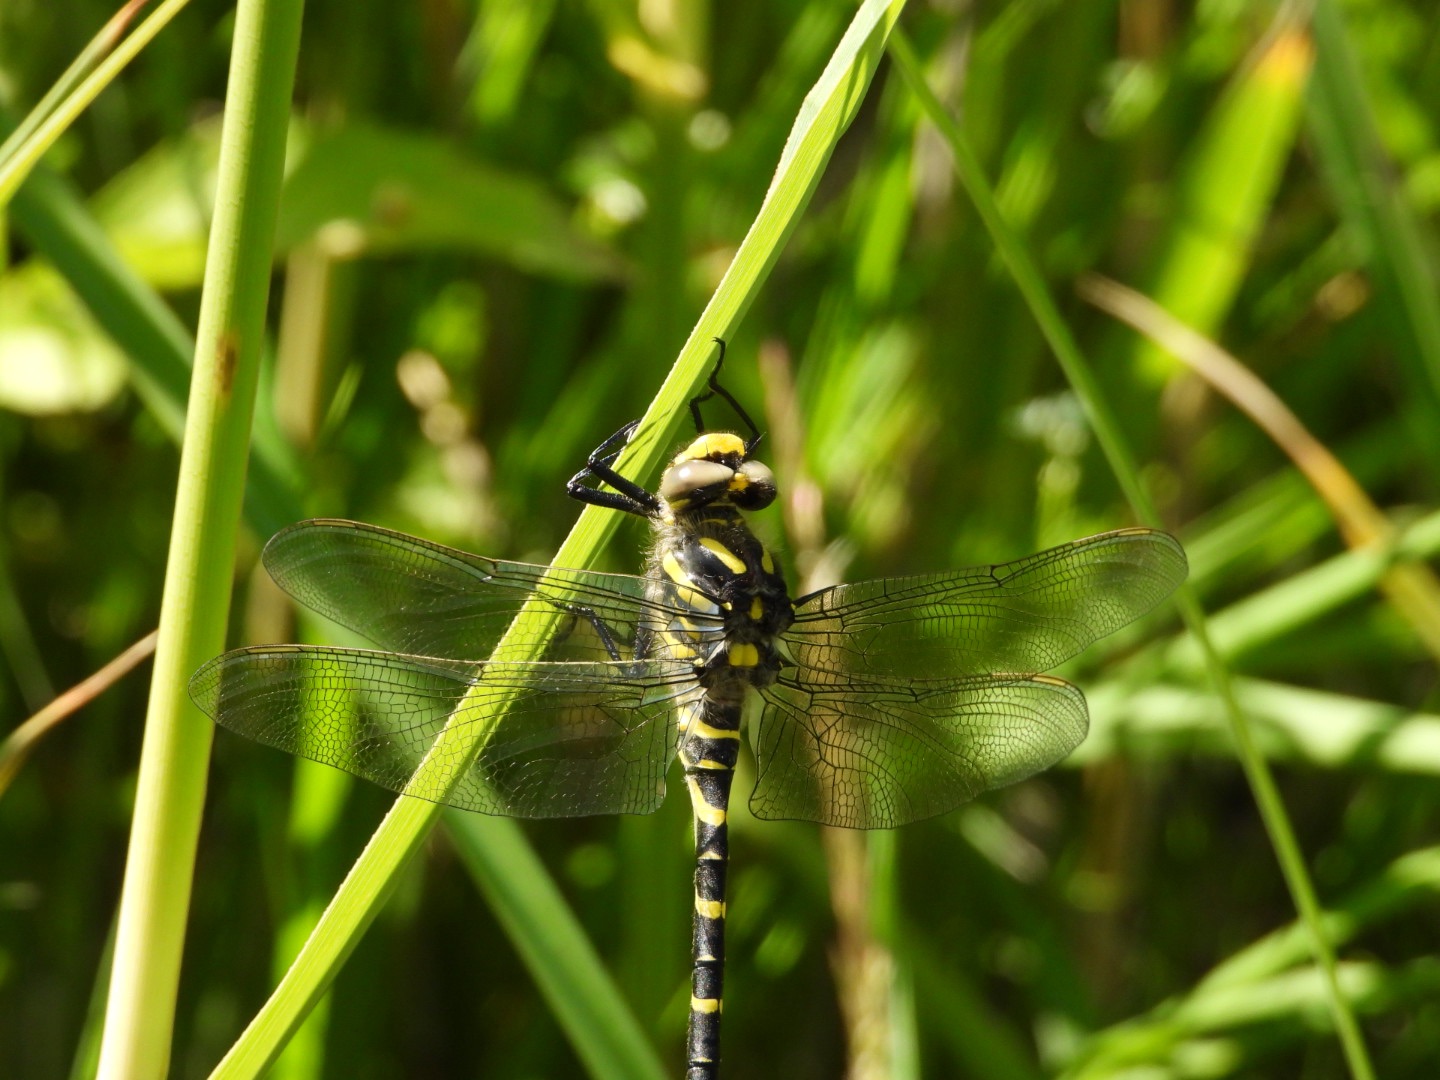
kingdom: Animalia
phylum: Arthropoda
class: Insecta
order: Odonata
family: Cordulegastridae
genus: Cordulegaster
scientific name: Cordulegaster boltonii
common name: Kongeguldsmed
